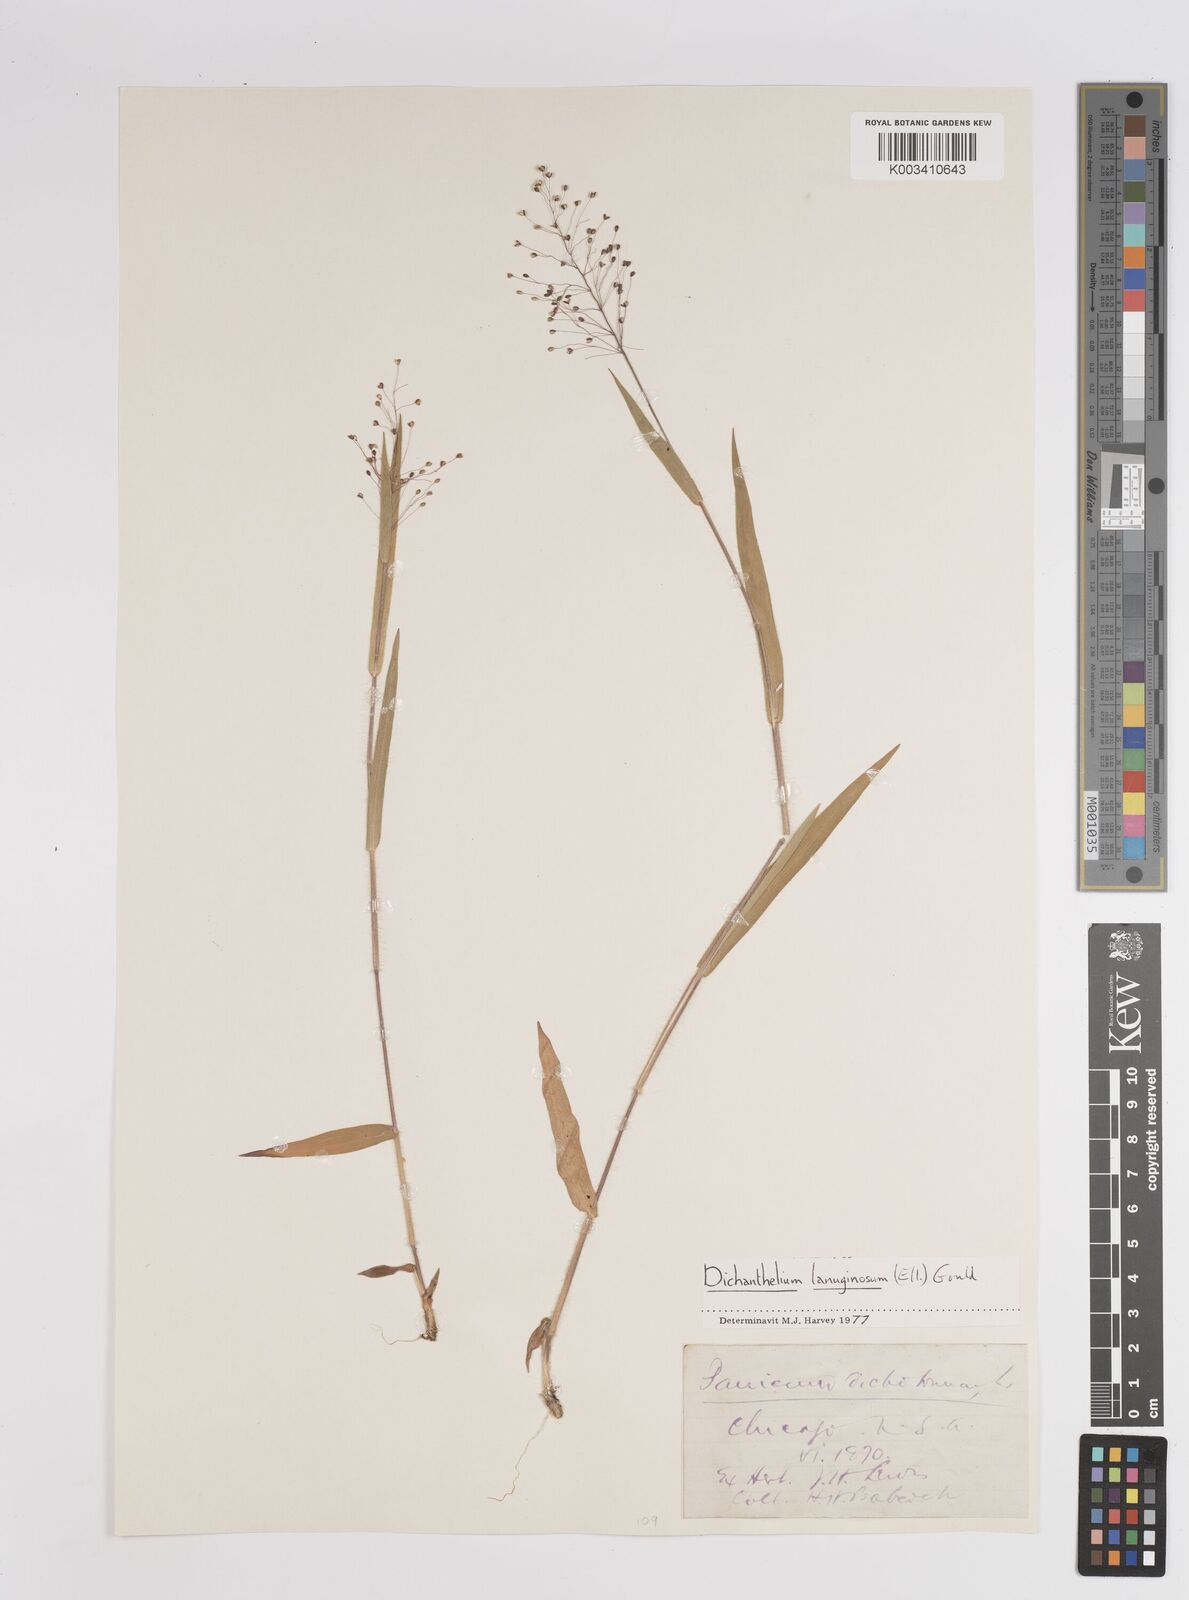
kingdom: Plantae
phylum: Tracheophyta
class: Liliopsida
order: Poales
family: Poaceae
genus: Dichanthelium
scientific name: Dichanthelium lanuginosum
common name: Woolly panicgrass
